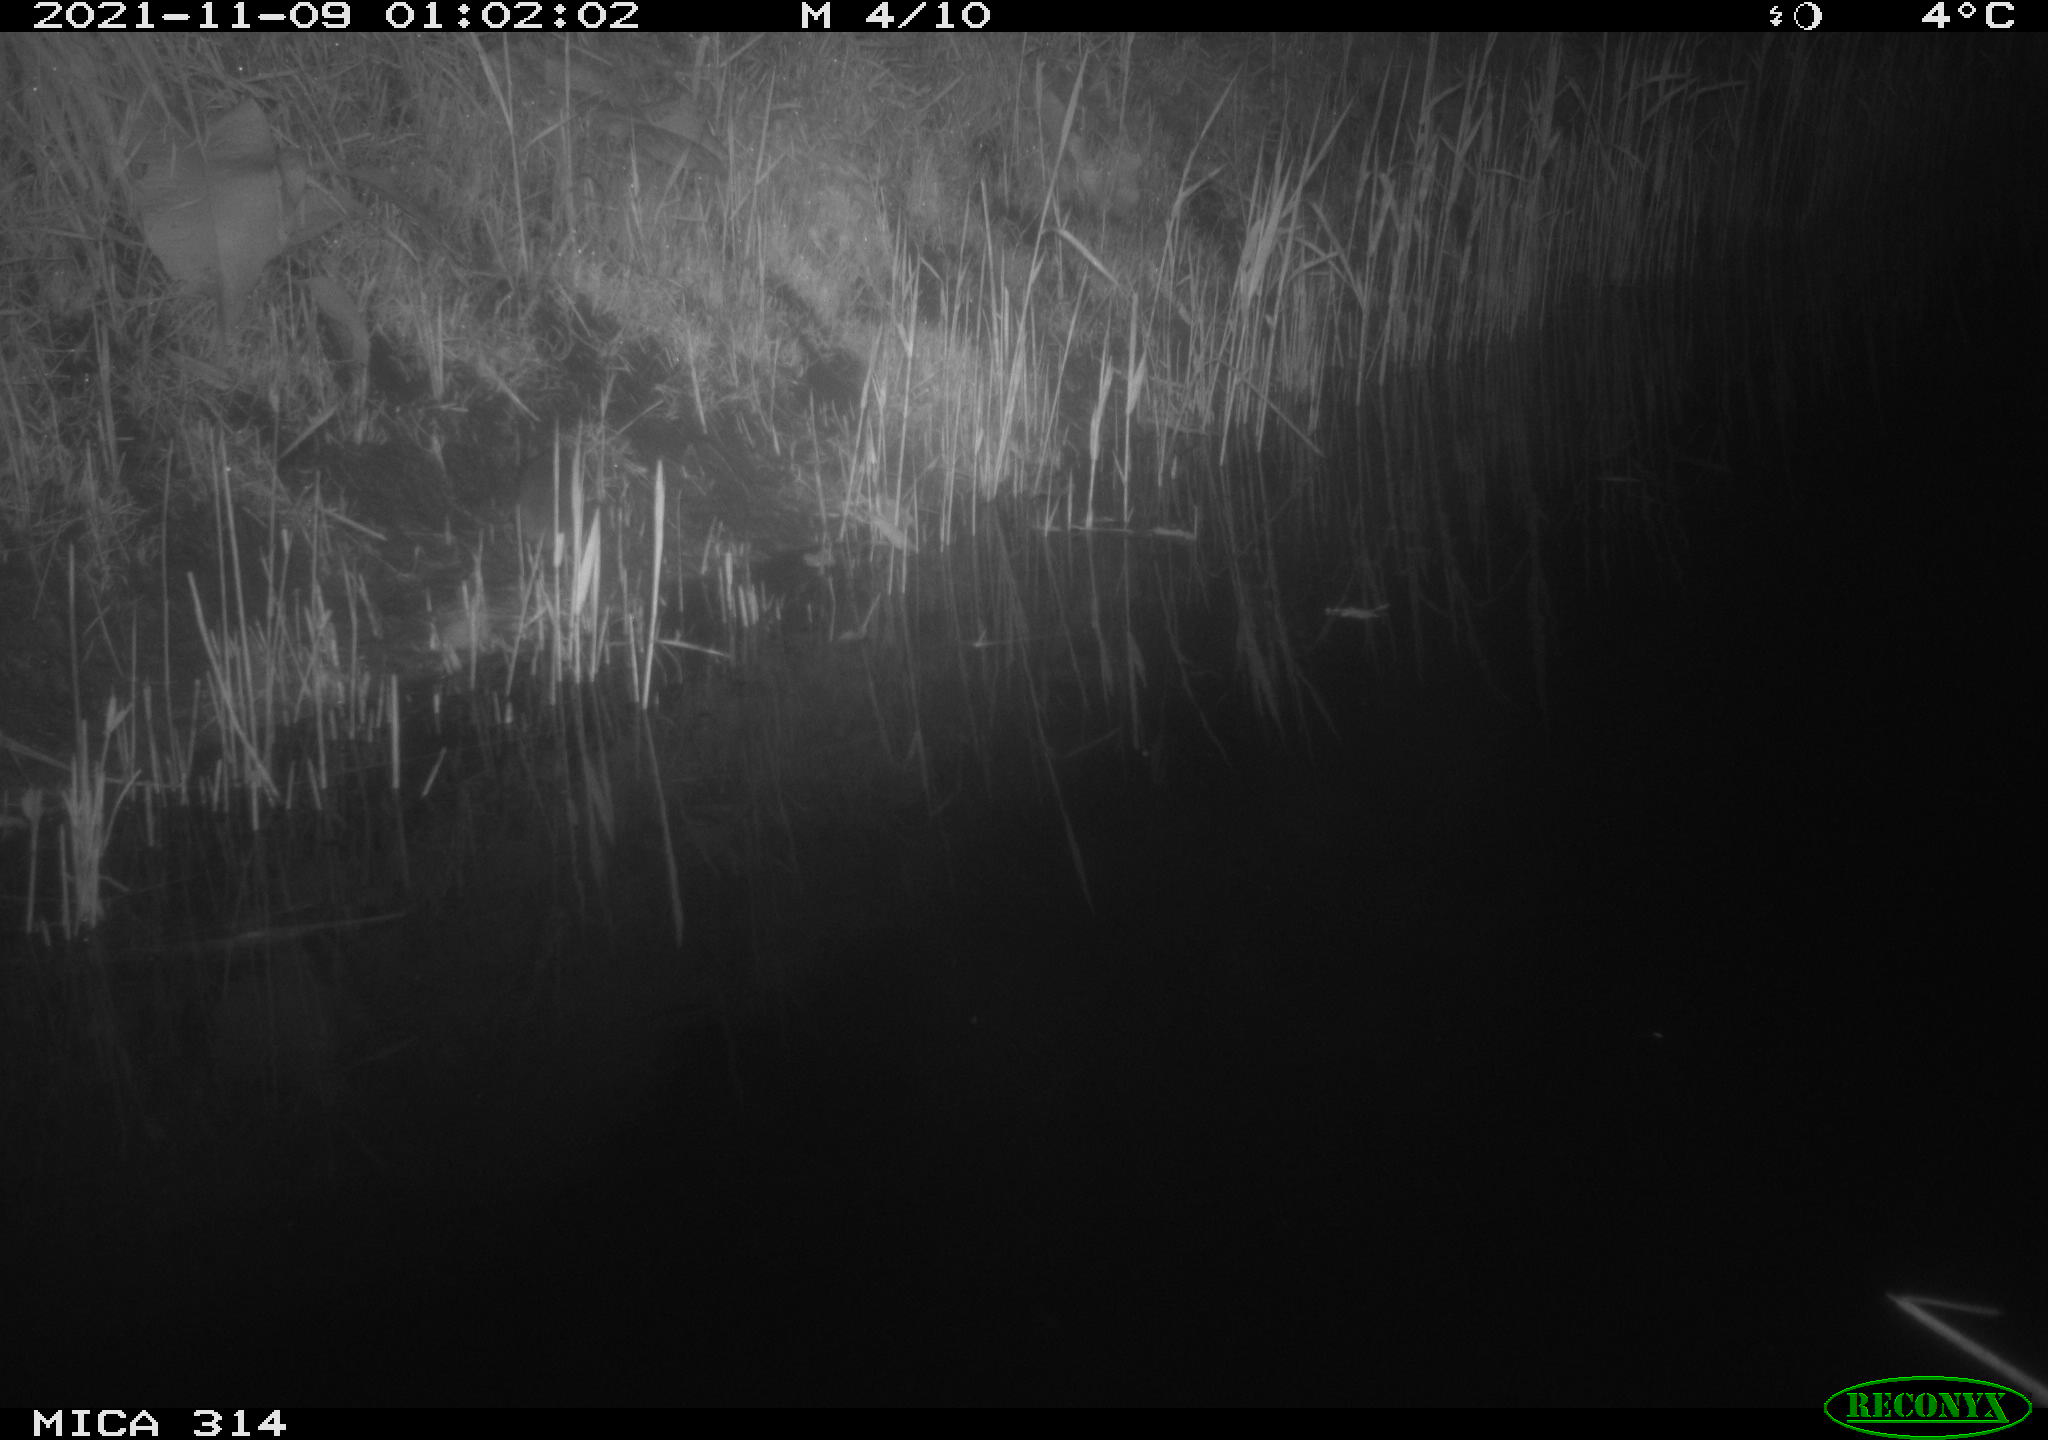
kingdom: Animalia
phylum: Chordata
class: Mammalia
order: Rodentia
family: Muridae
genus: Rattus
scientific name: Rattus norvegicus
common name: Brown rat
